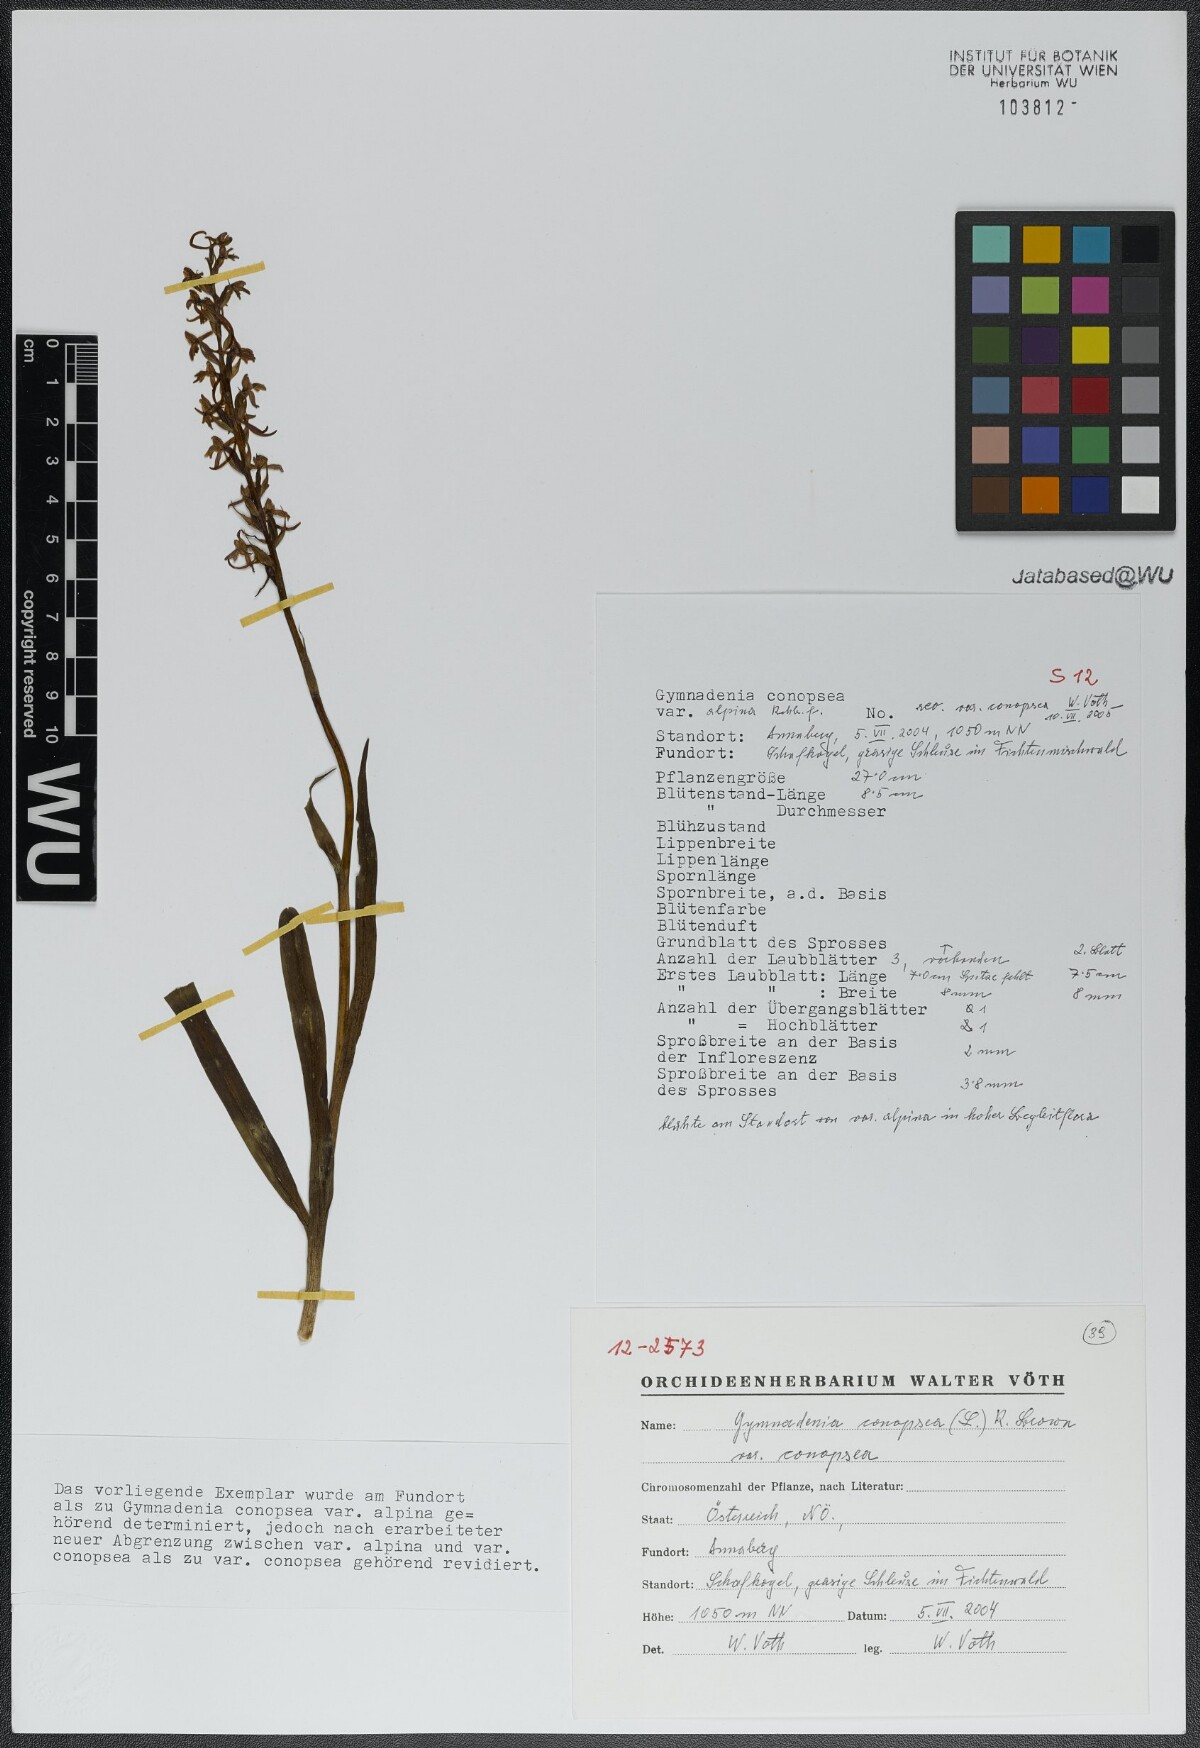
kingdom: Plantae
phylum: Tracheophyta
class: Liliopsida
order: Asparagales
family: Orchidaceae
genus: Gymnadenia
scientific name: Gymnadenia conopsea
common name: Fragrant orchid
